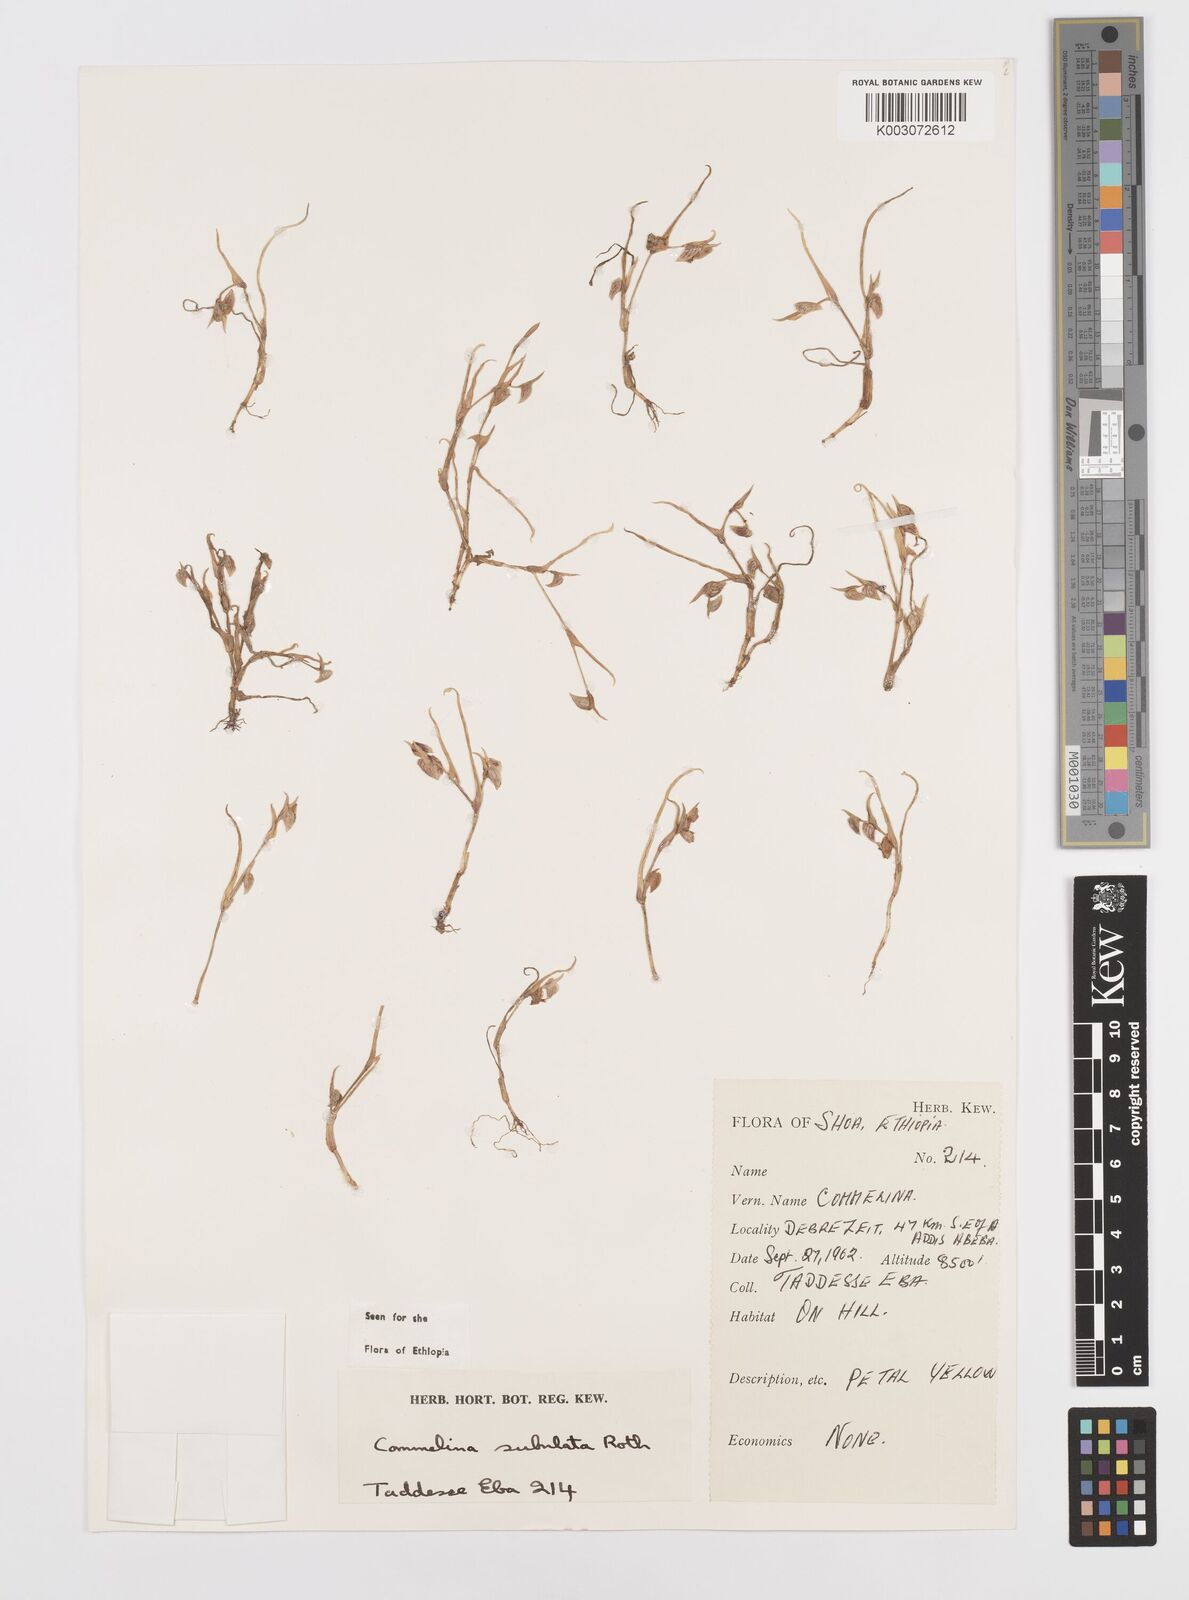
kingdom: Plantae
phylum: Tracheophyta
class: Liliopsida
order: Commelinales
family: Commelinaceae
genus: Commelina
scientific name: Commelina subulata
